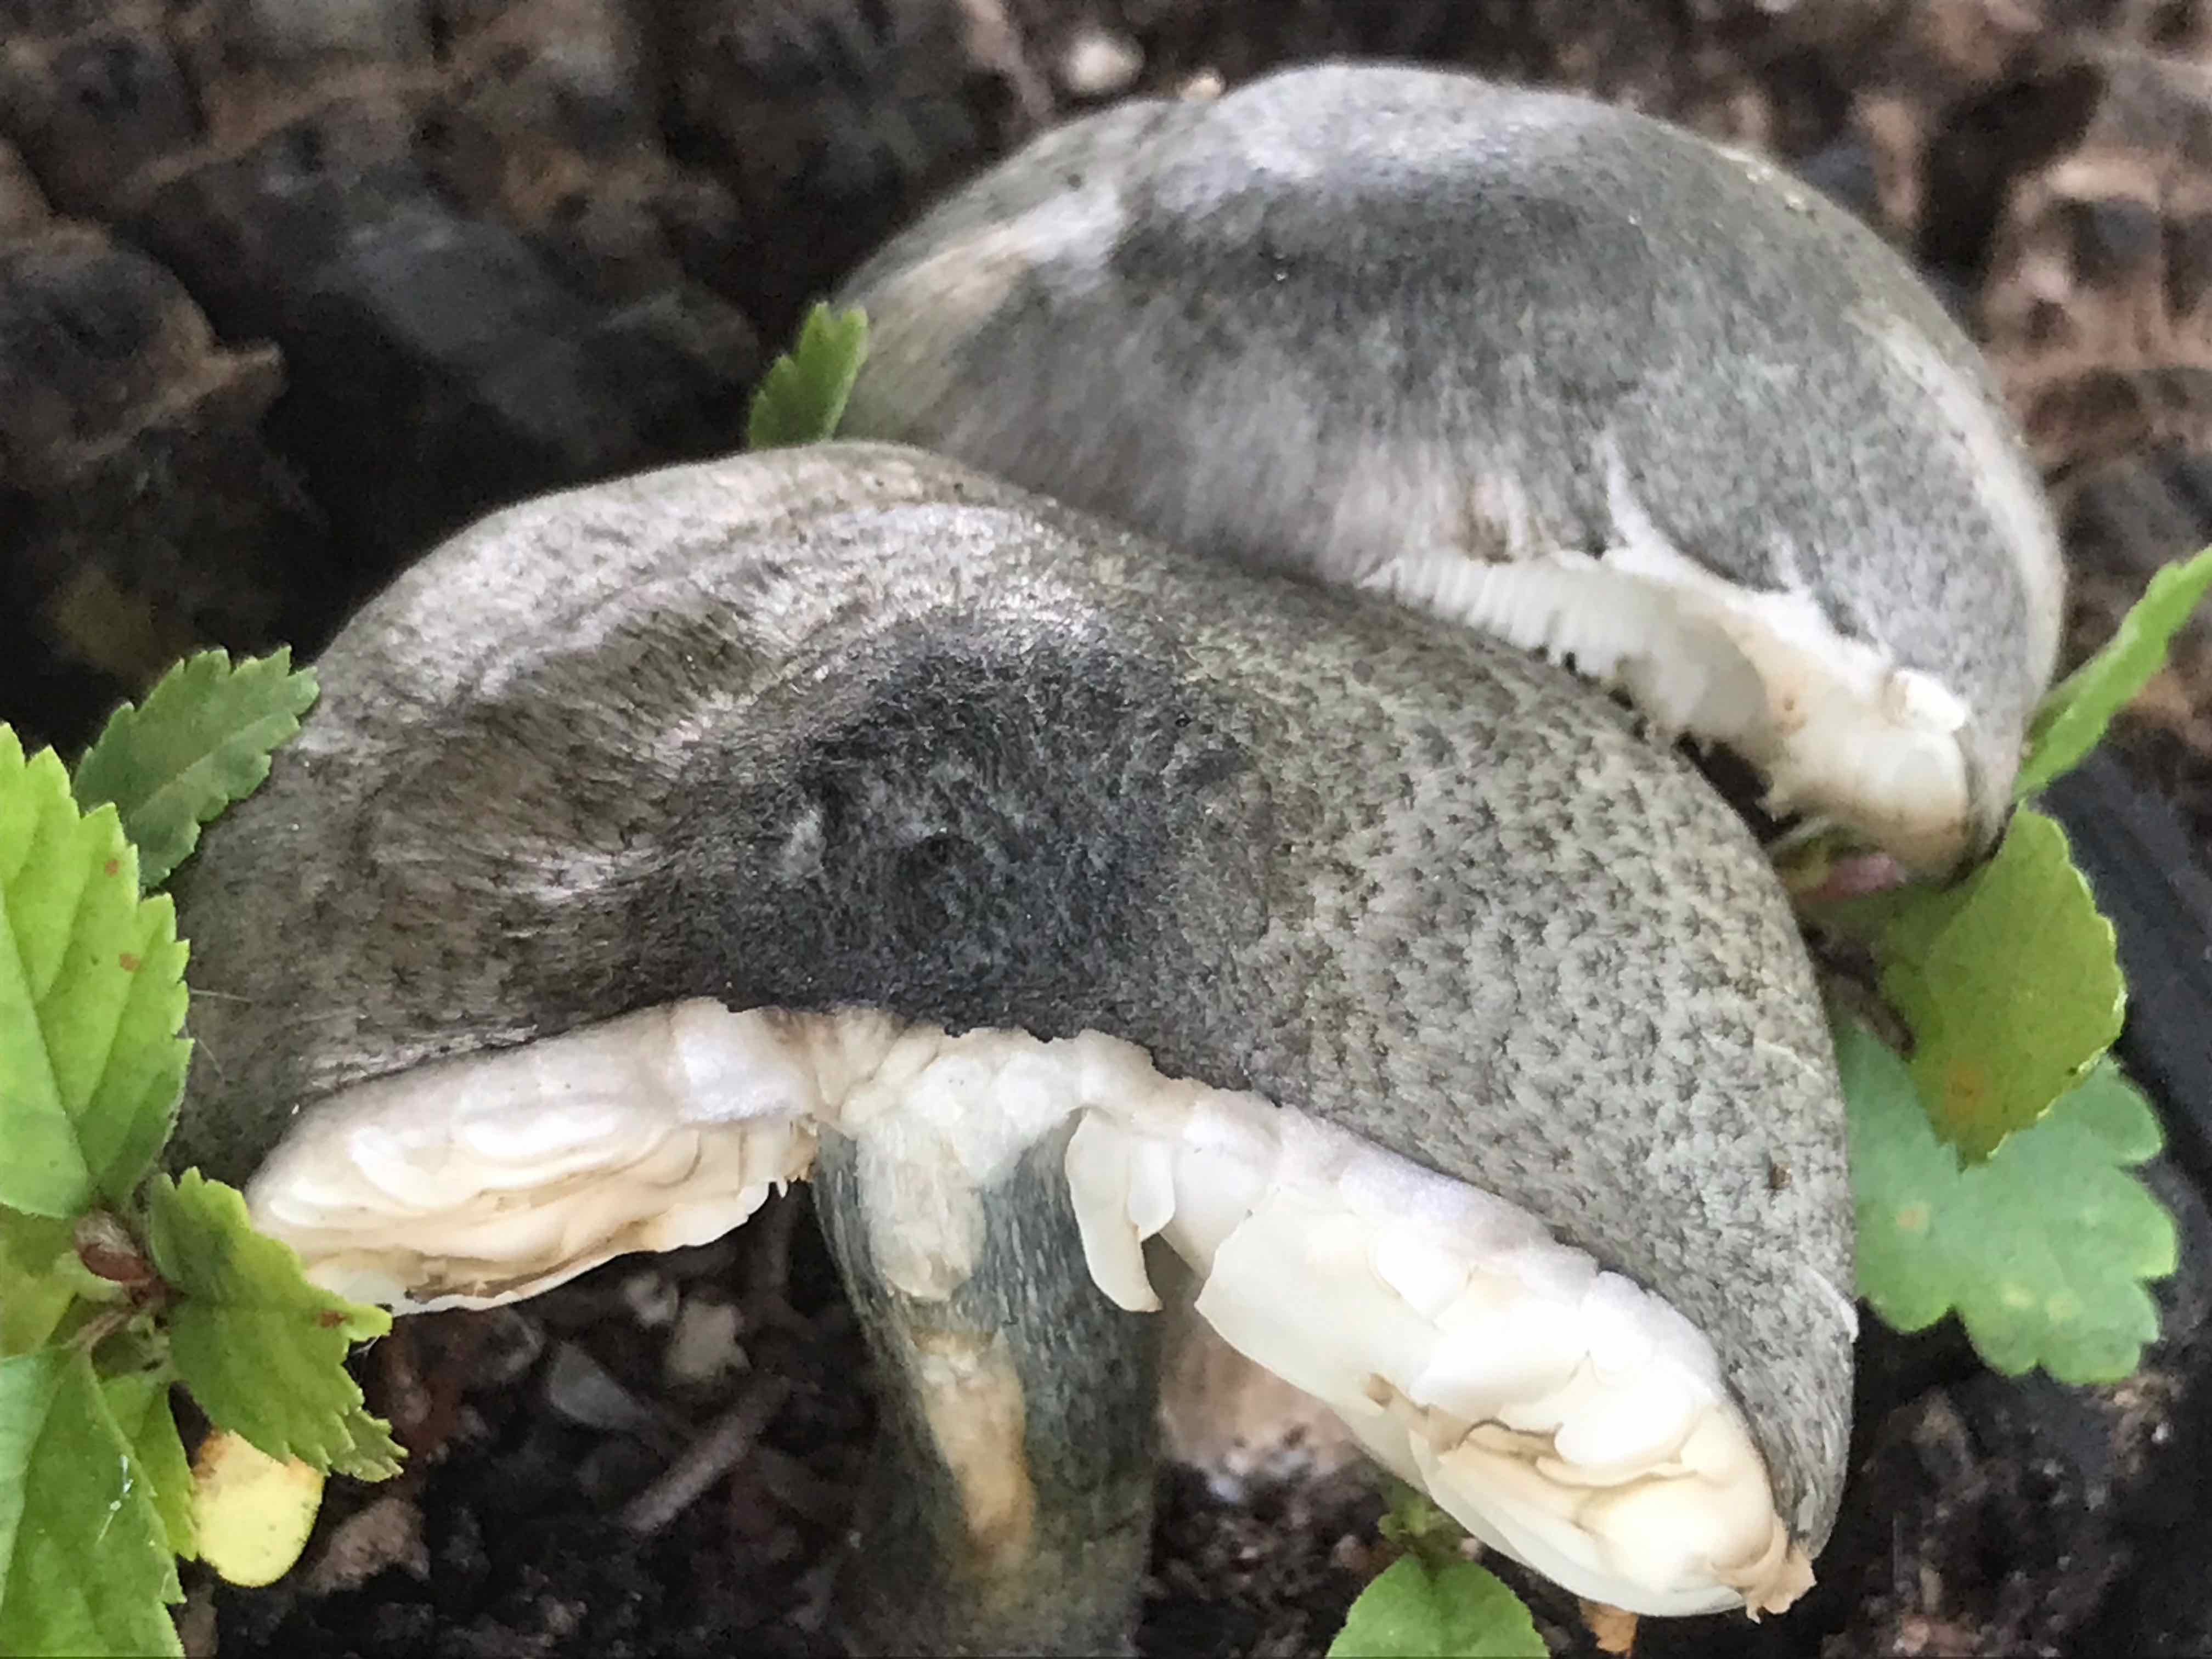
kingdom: Fungi
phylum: Basidiomycota
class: Agaricomycetes
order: Agaricales
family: Pluteaceae
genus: Pluteus
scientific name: Pluteus salicinus
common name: stiv skærmhat
